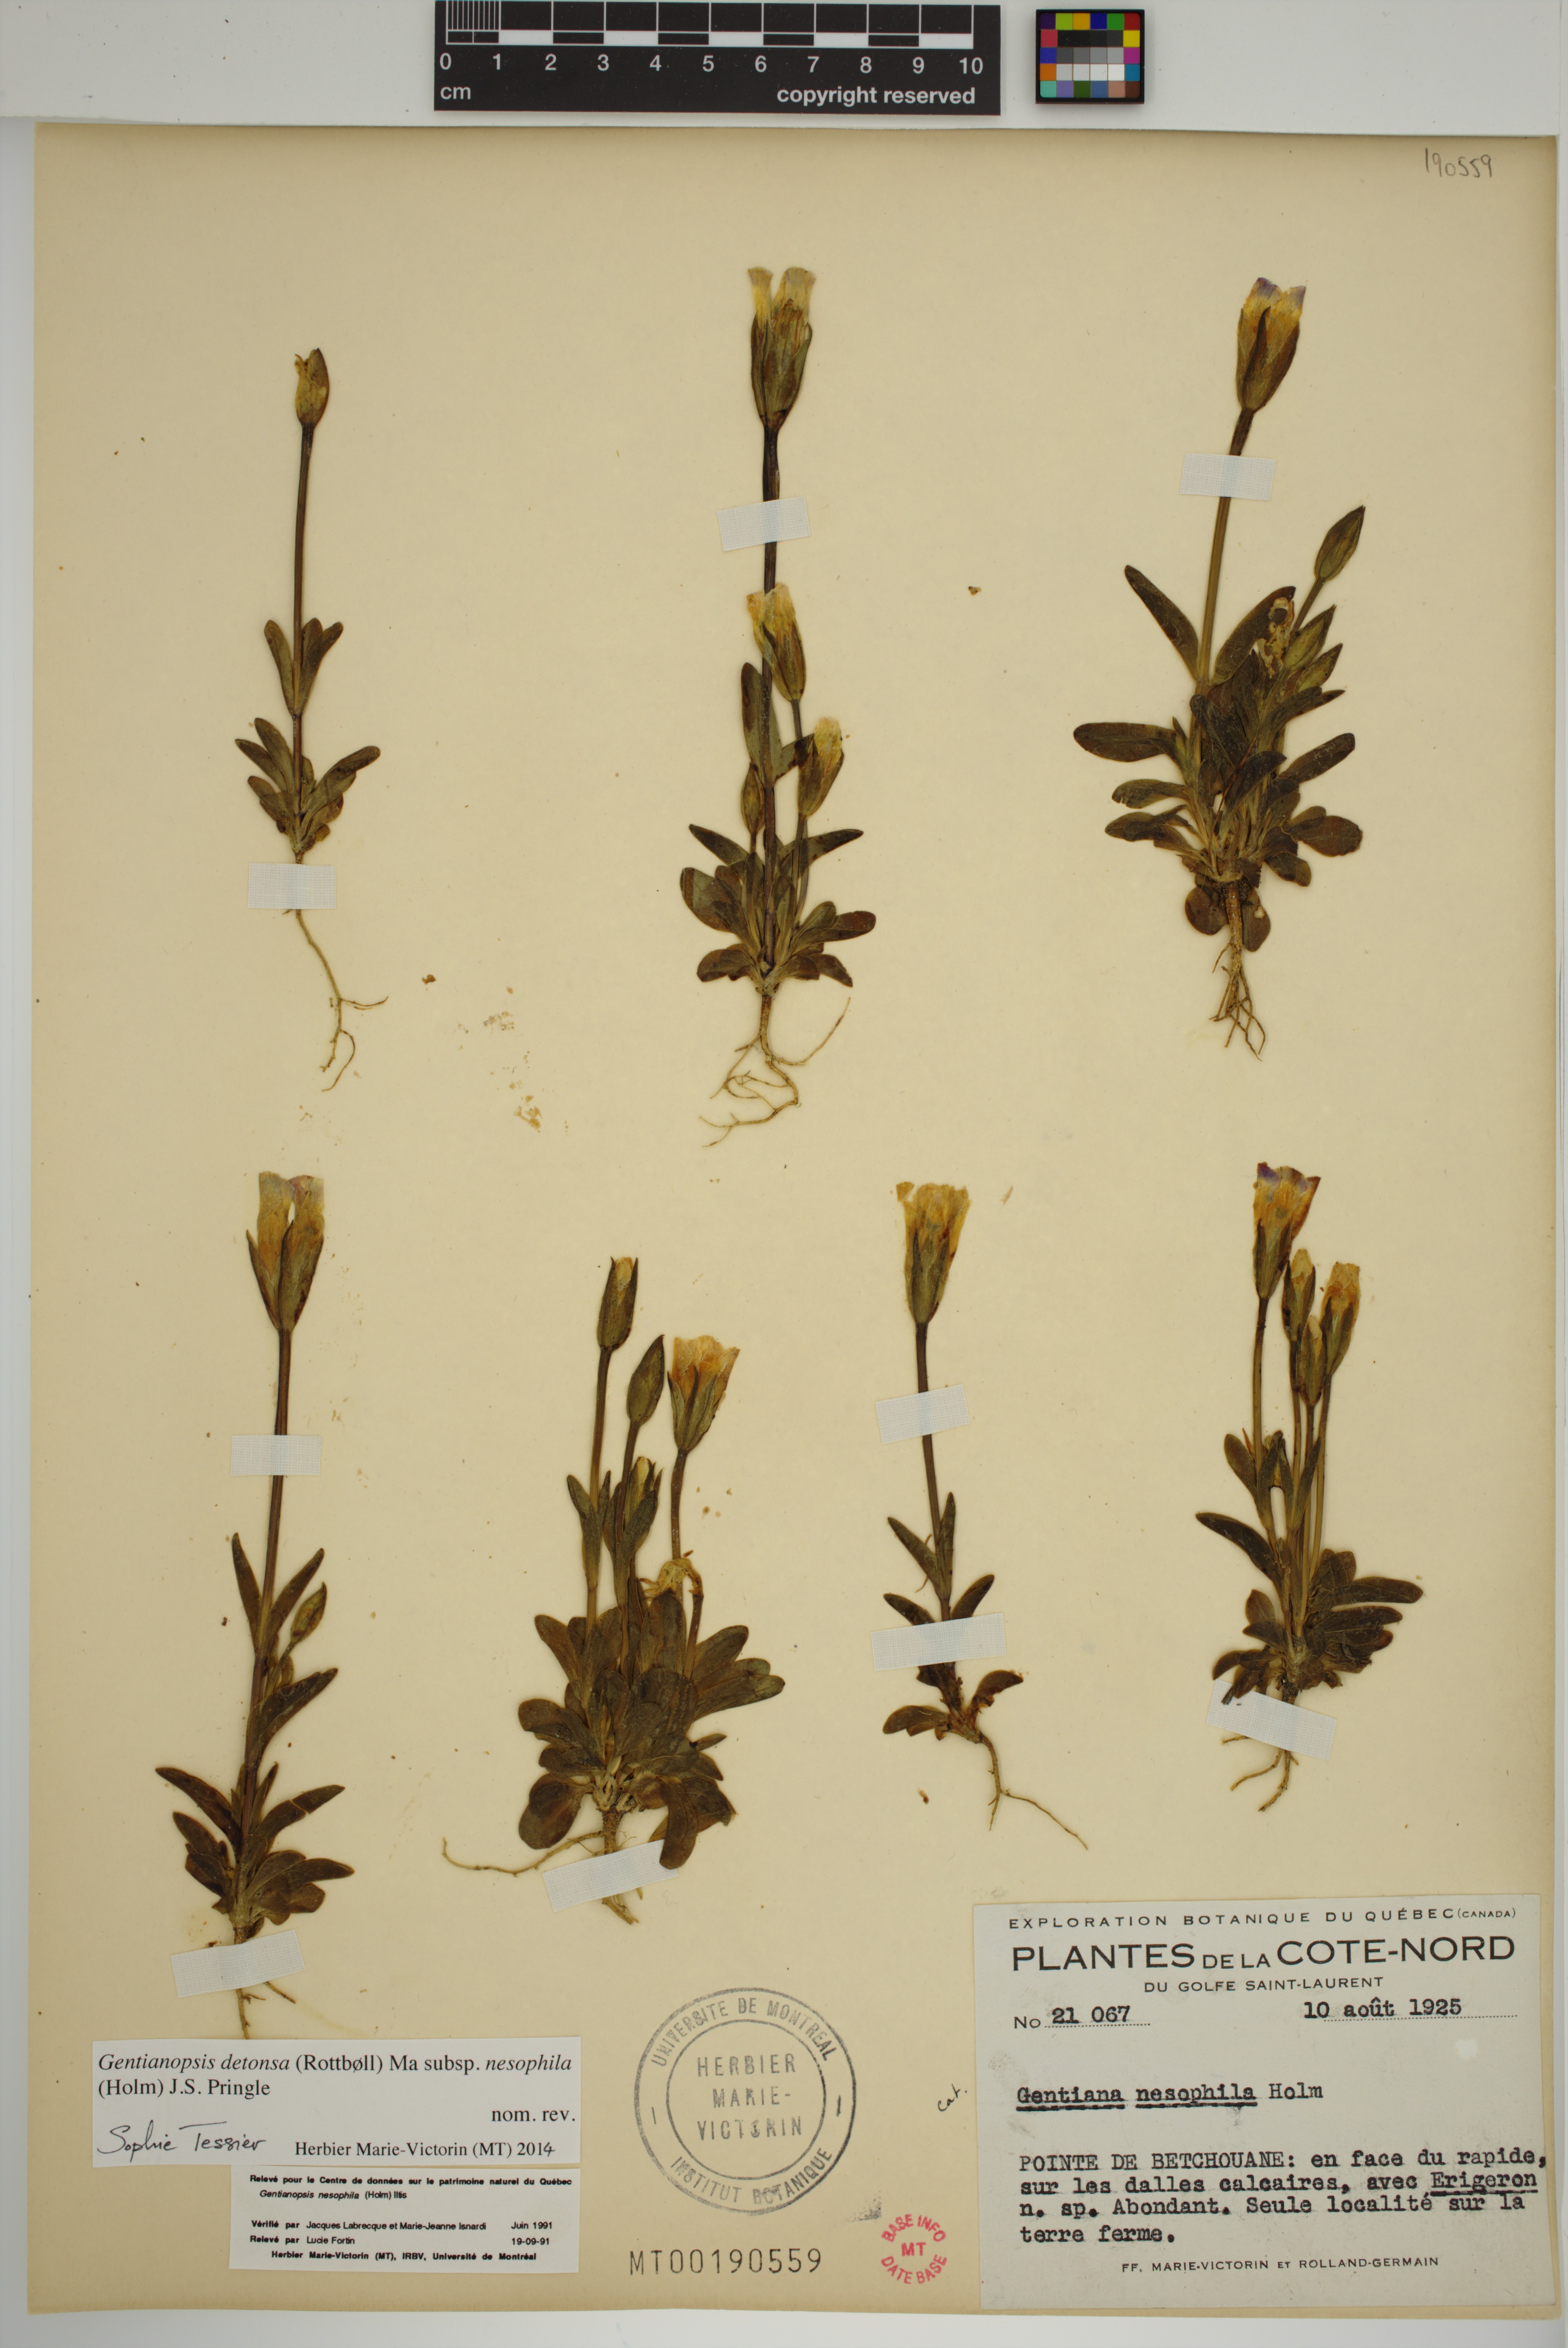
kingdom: Plantae
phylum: Tracheophyta
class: Magnoliopsida
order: Gentianales
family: Gentianaceae
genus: Gentianopsis
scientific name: Gentianopsis nesophila
